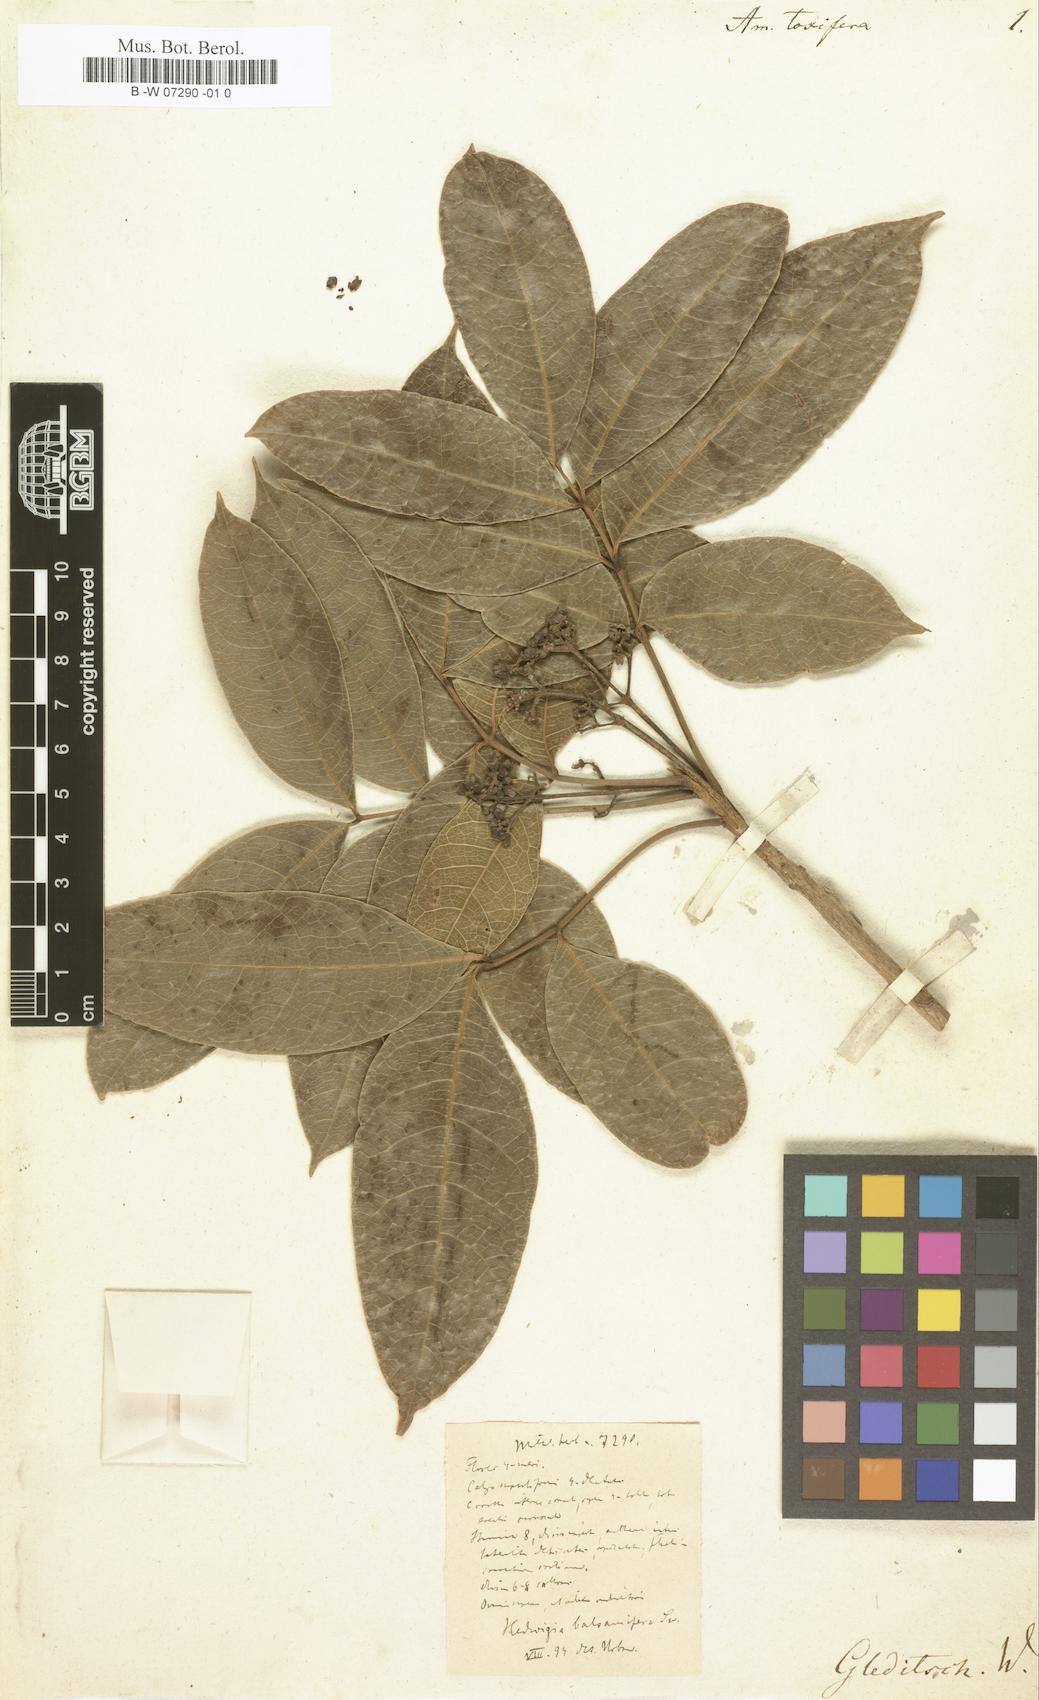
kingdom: Plantae
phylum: Tracheophyta
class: Magnoliopsida
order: Sapindales
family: Anacardiaceae
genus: Metopium
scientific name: Metopium toxiferum
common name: Florida poisontree
